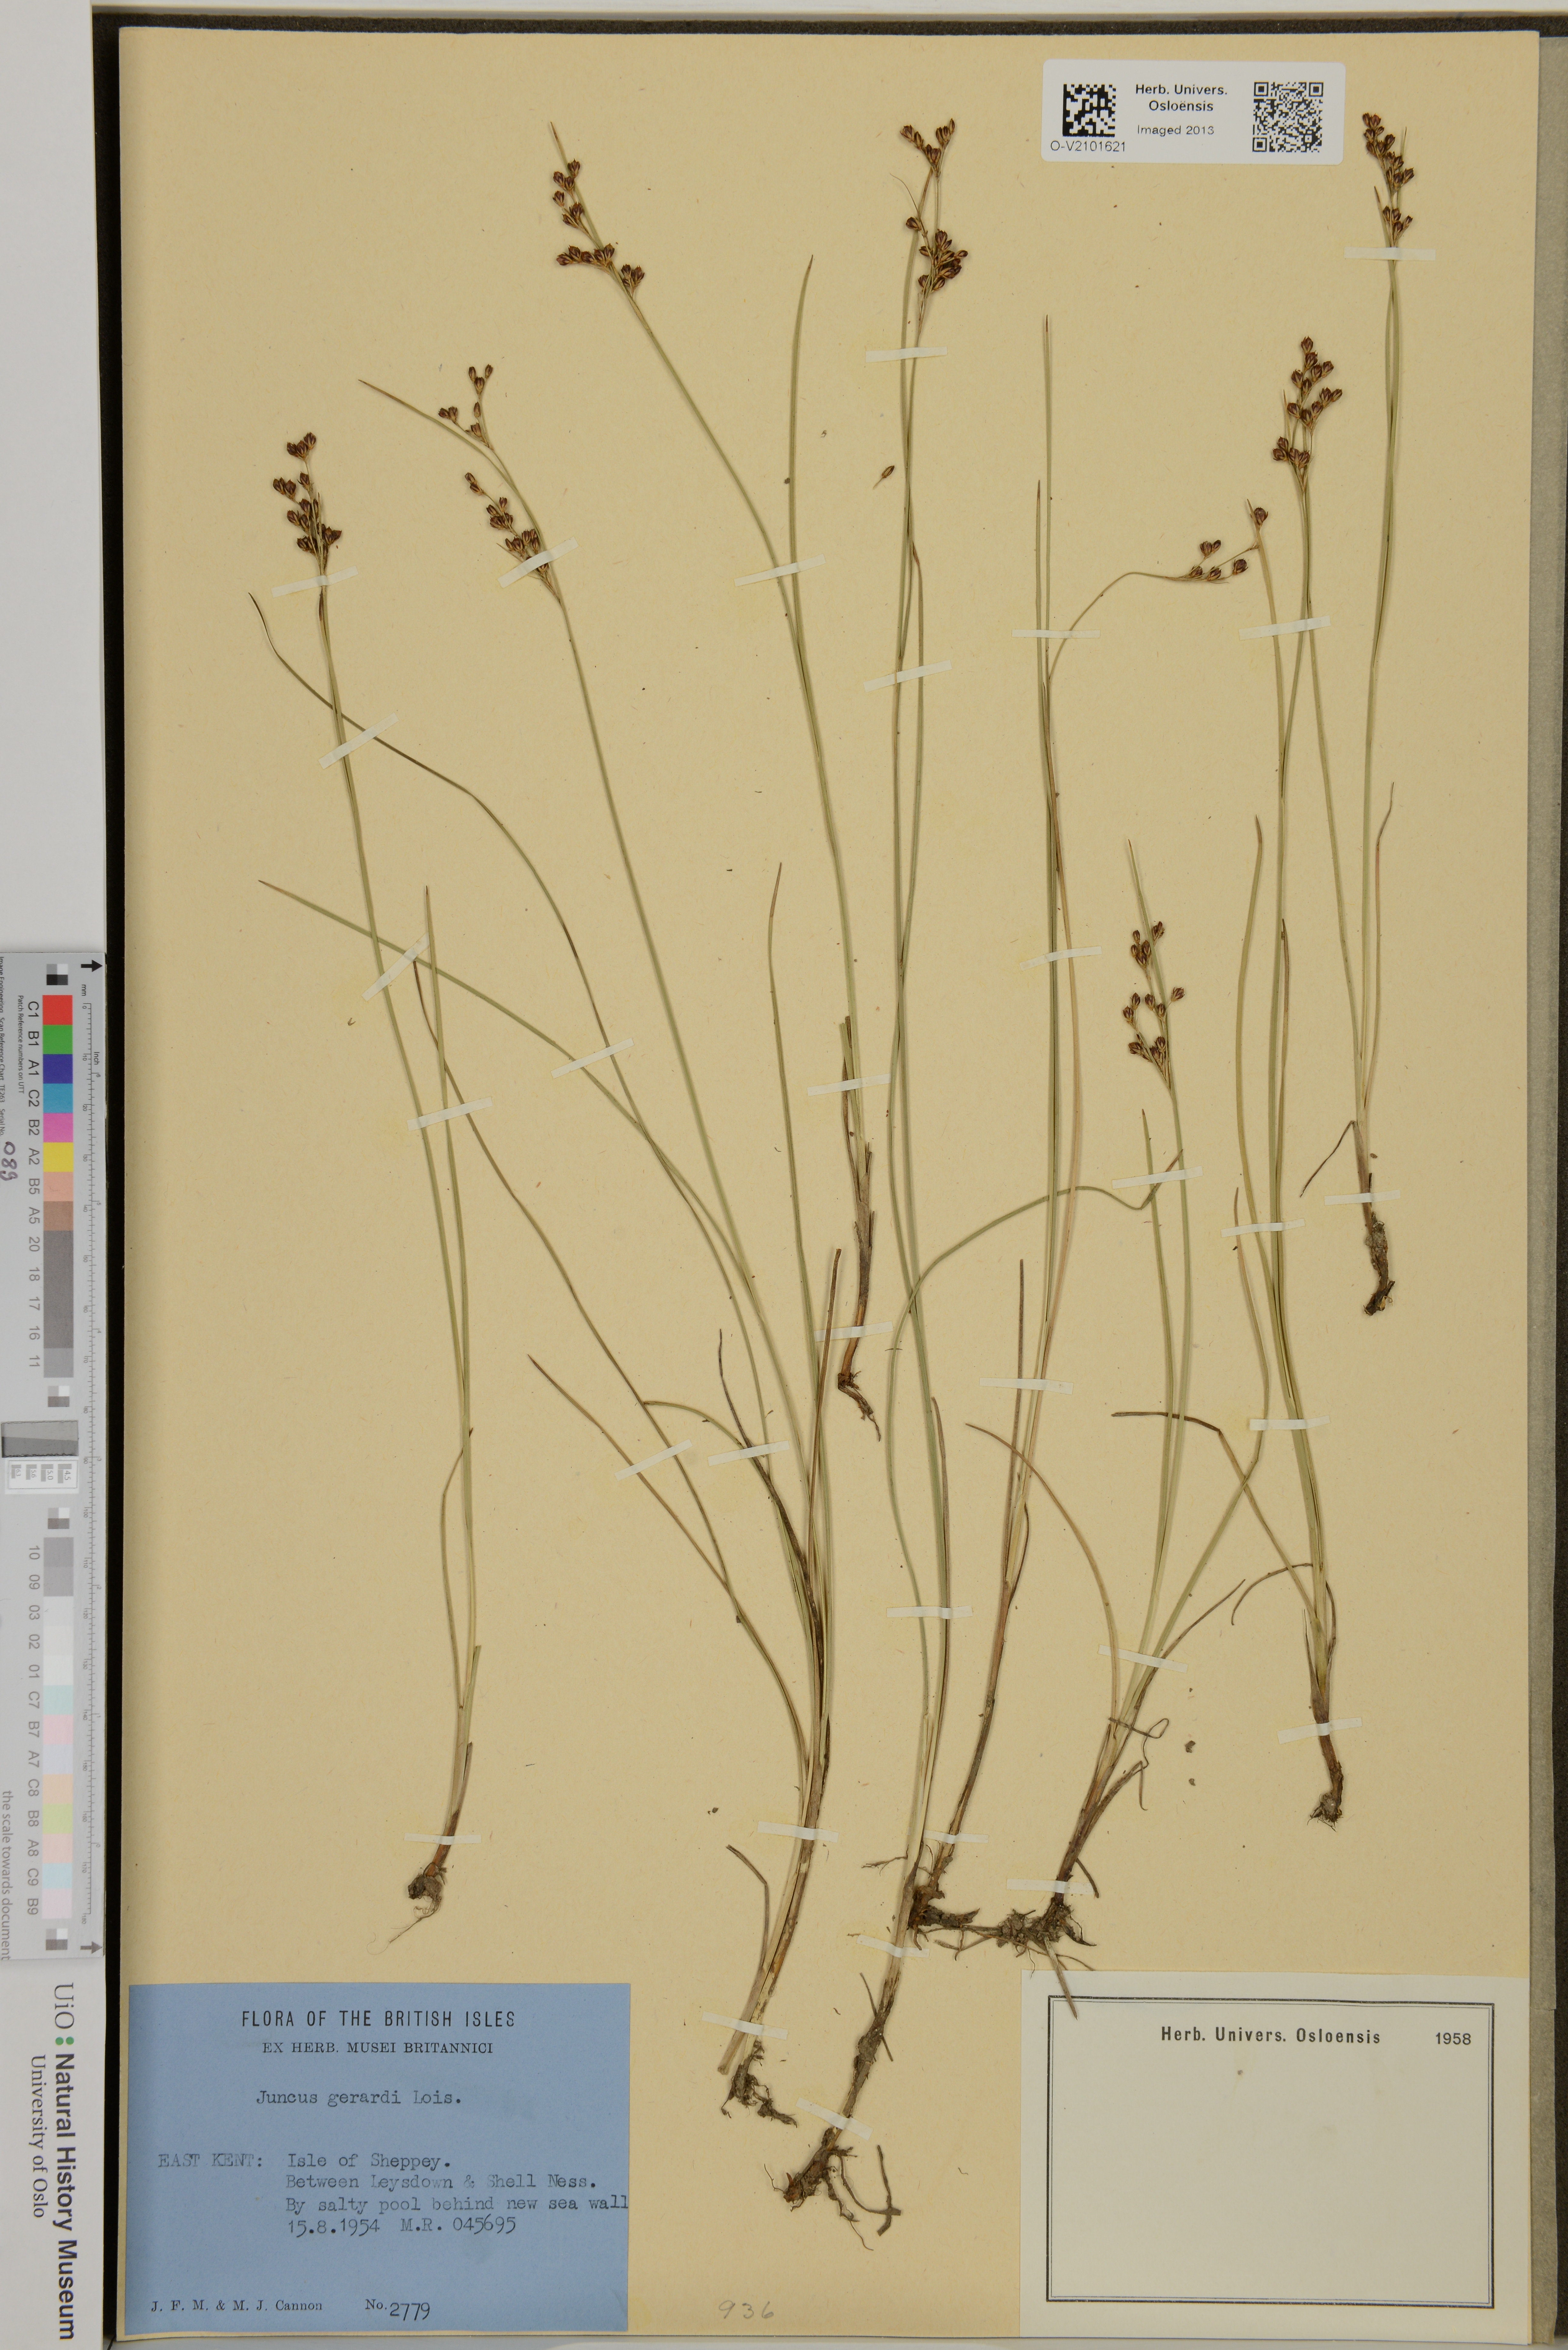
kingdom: Plantae
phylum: Tracheophyta
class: Liliopsida
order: Poales
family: Juncaceae
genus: Juncus
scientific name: Juncus gerardi
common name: Saltmarsh rush
